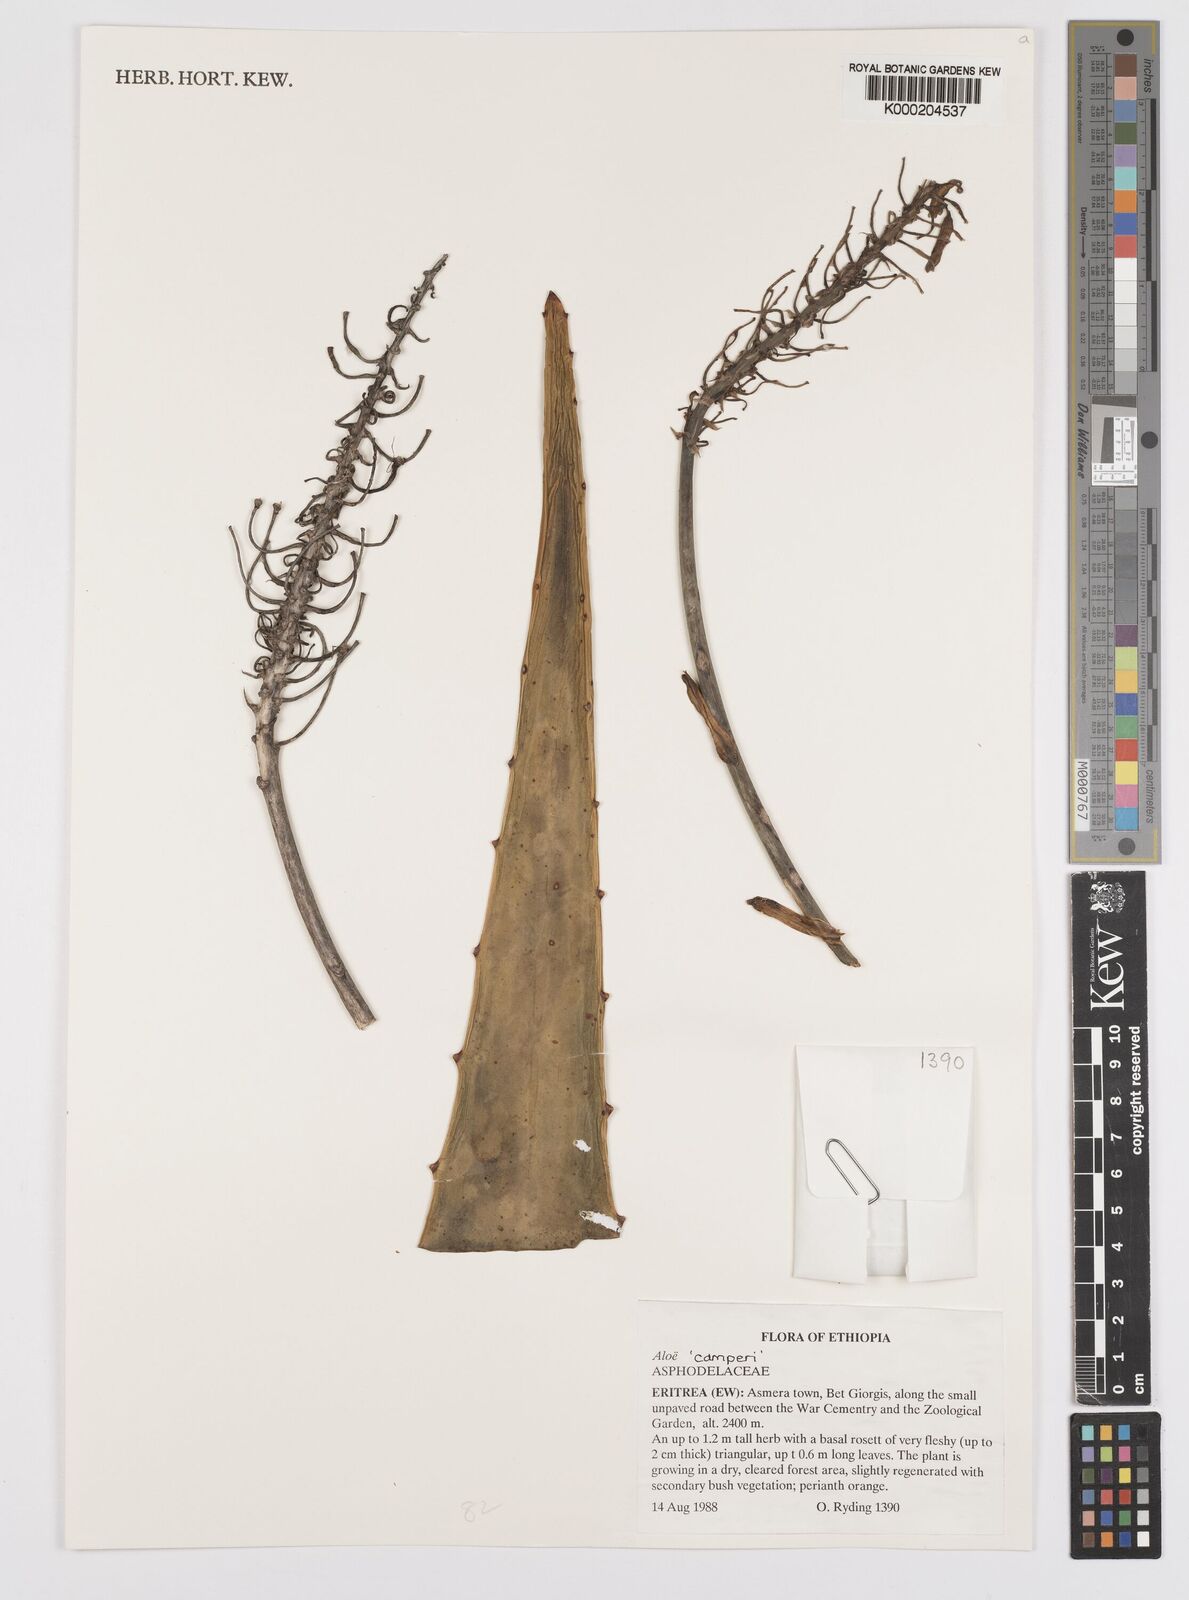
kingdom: Plantae
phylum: Tracheophyta
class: Liliopsida
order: Asparagales
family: Asphodelaceae
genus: Aloe
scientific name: Aloe elegans
